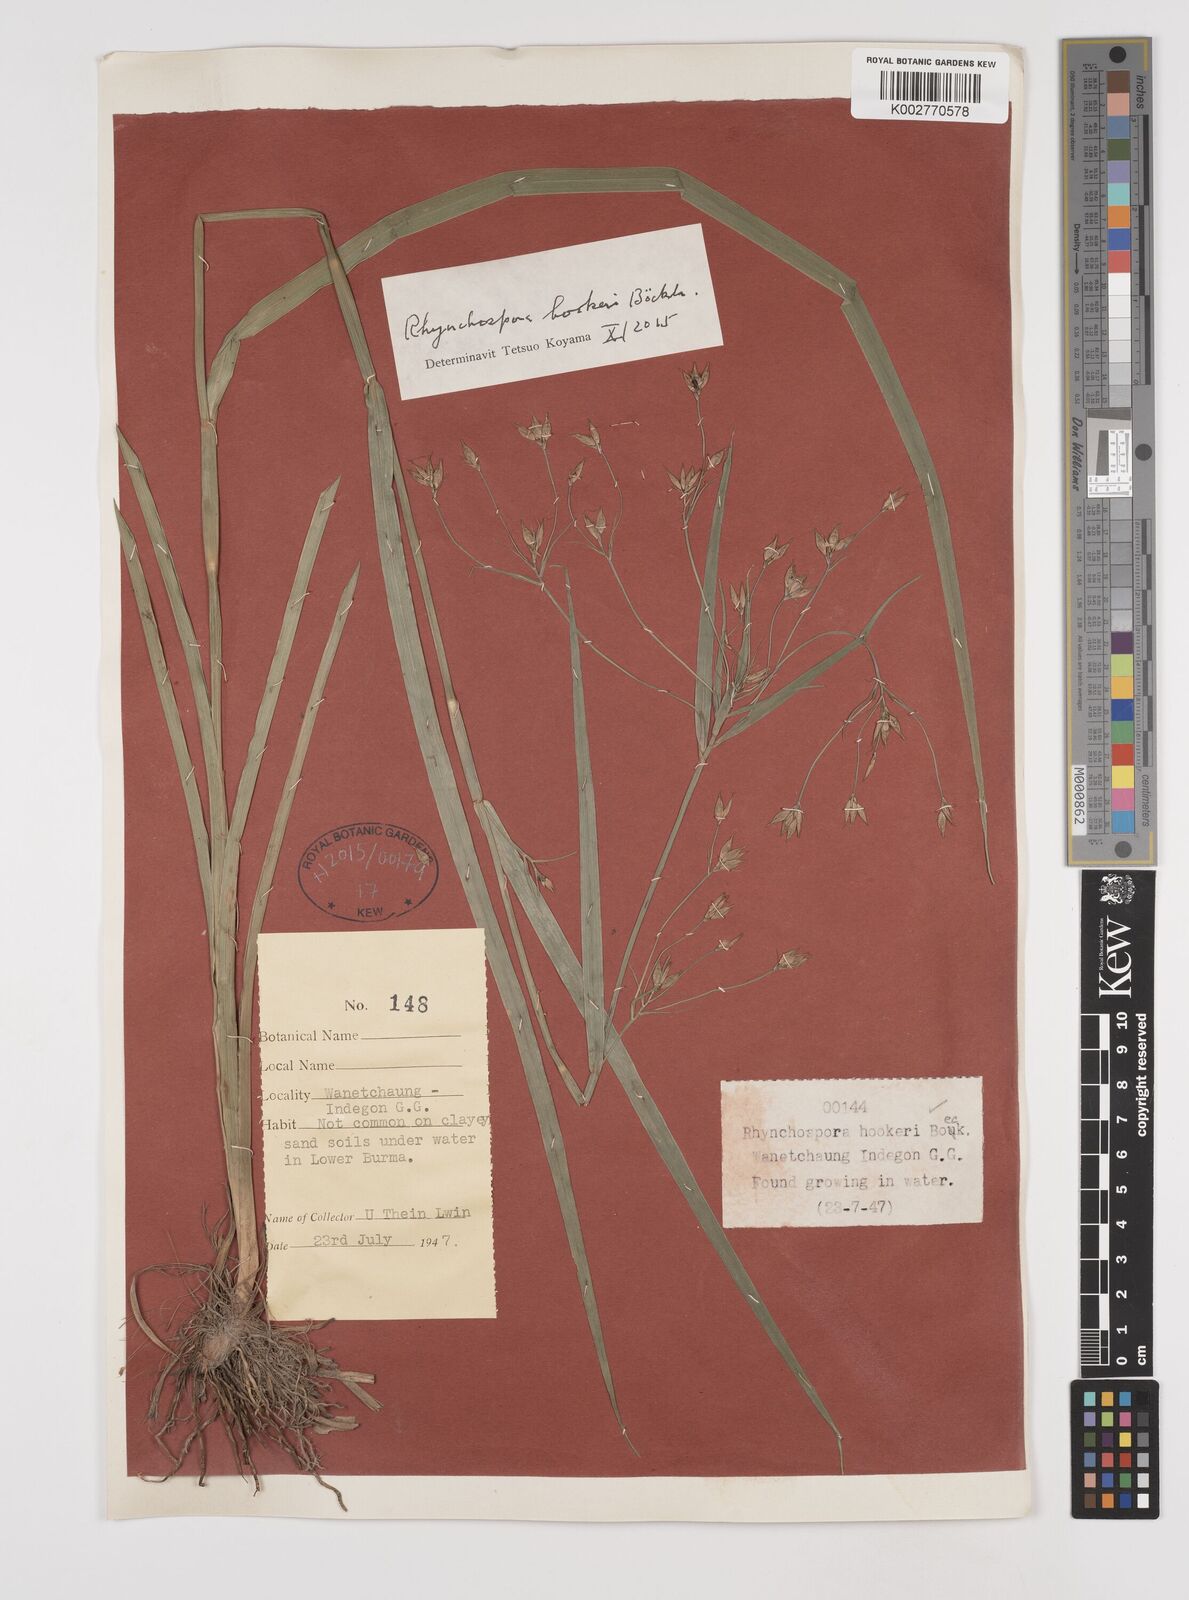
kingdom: Plantae
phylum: Tracheophyta
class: Liliopsida
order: Poales
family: Cyperaceae
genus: Rhynchospora
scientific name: Rhynchospora hookeri
